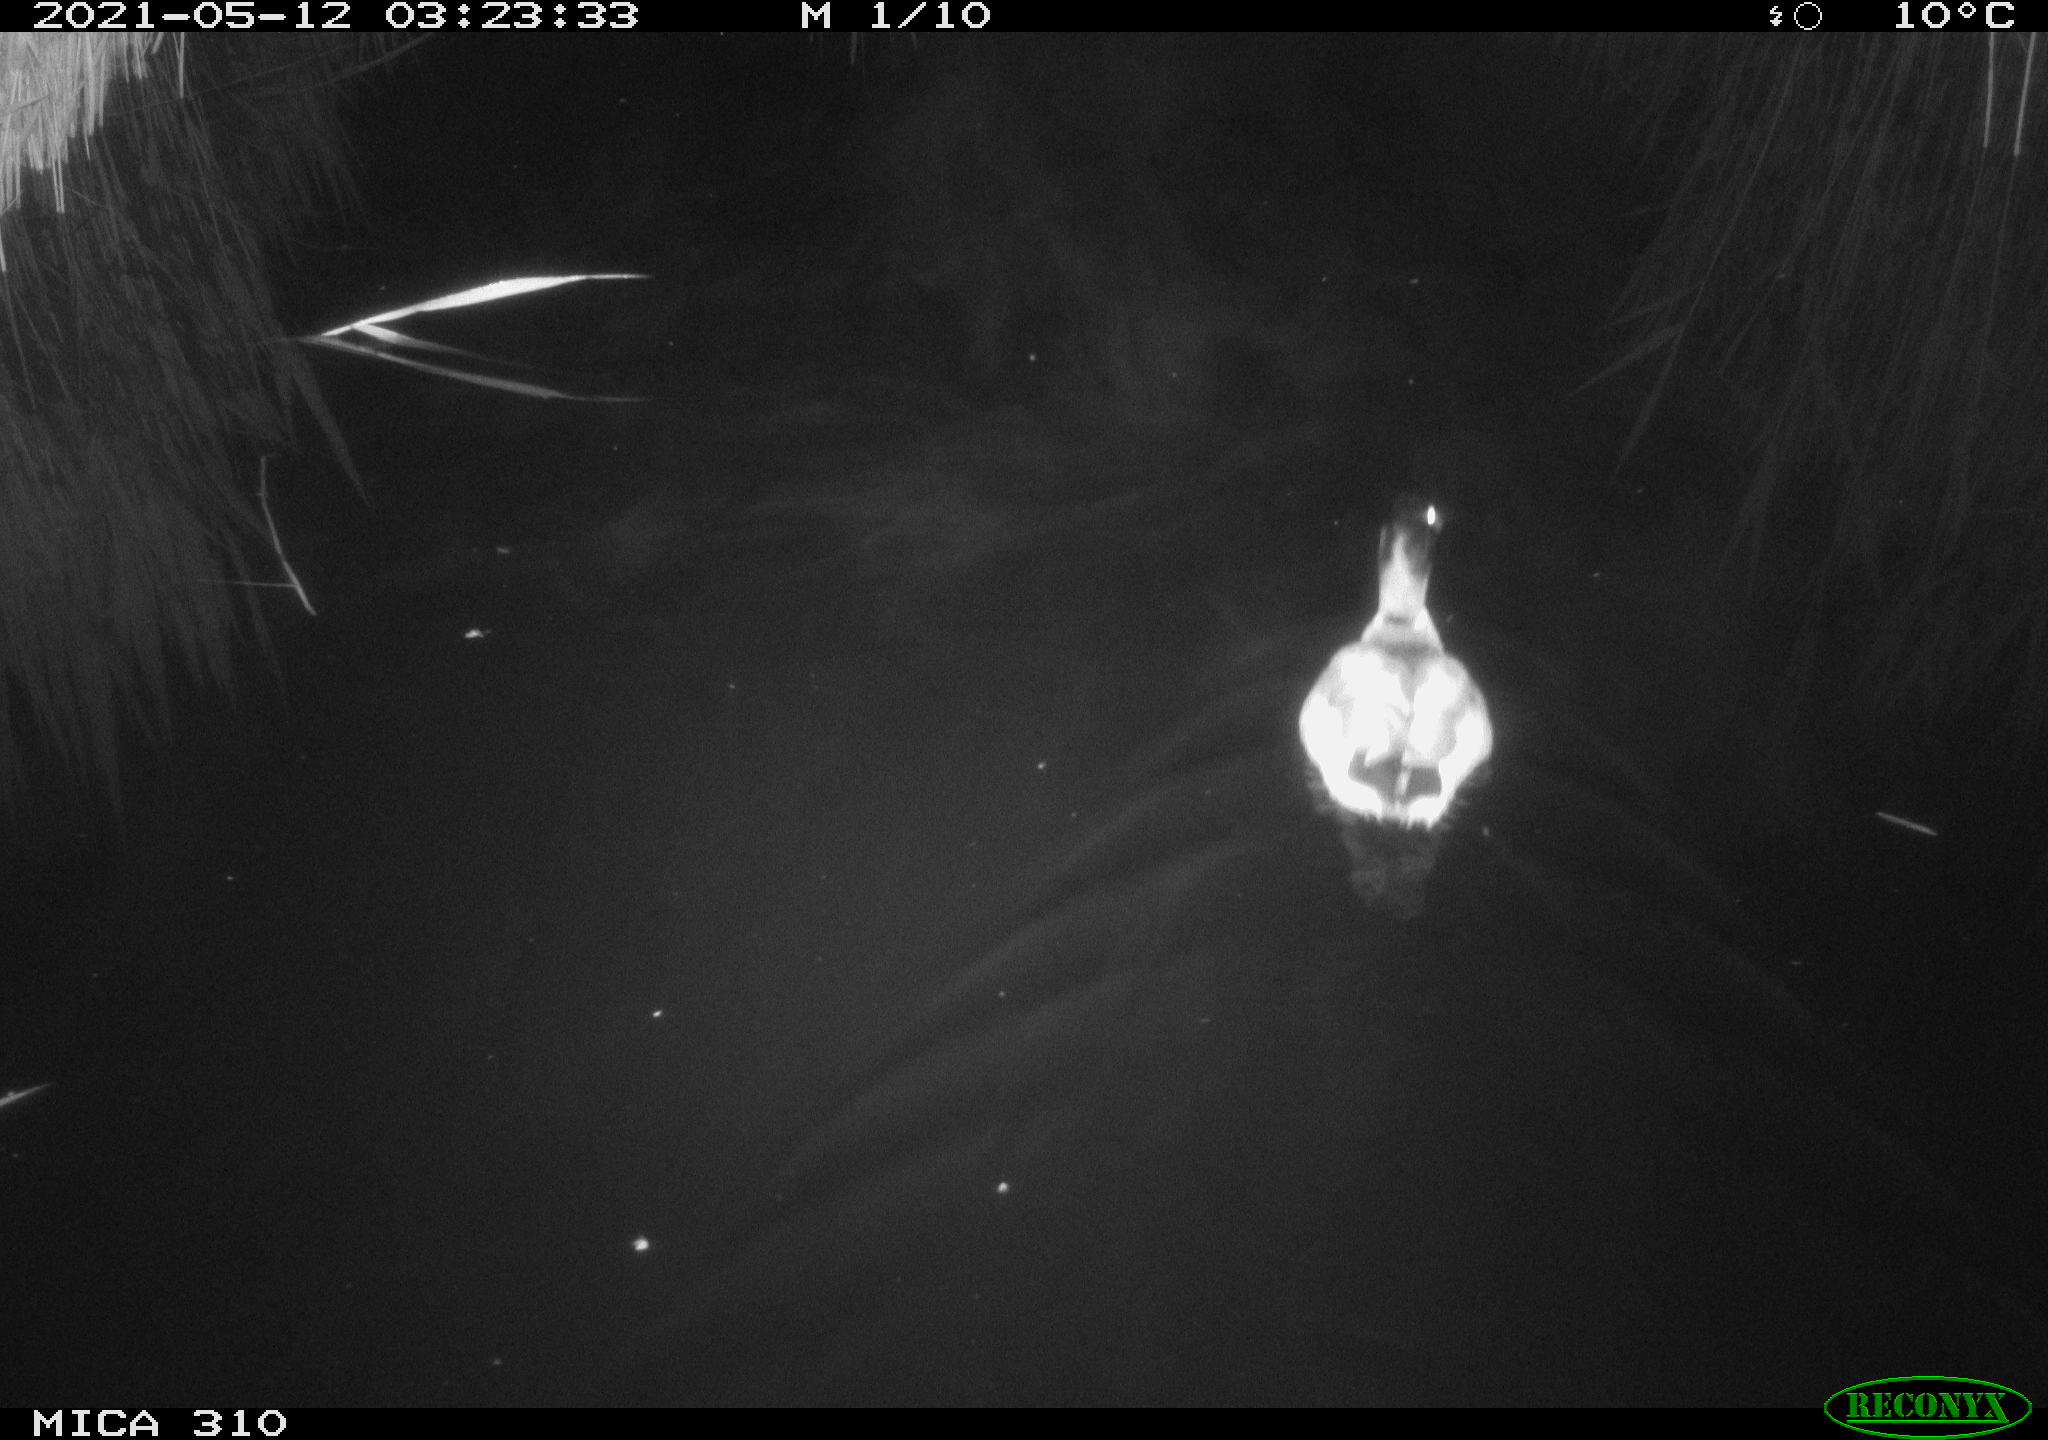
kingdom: Animalia
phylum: Chordata
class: Aves
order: Anseriformes
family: Anatidae
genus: Anas
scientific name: Anas platyrhynchos
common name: Mallard
